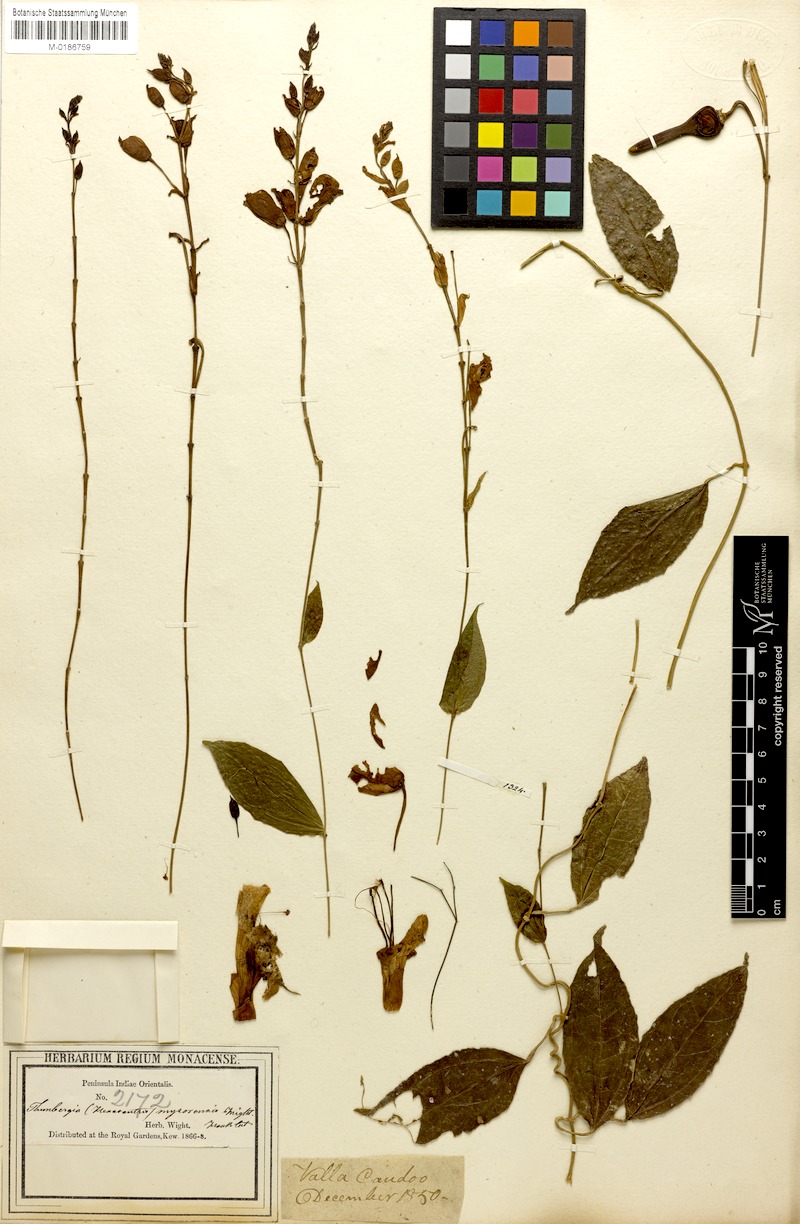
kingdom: Plantae
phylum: Tracheophyta
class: Magnoliopsida
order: Lamiales
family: Acanthaceae
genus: Thunbergia
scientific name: Thunbergia mysorensis
